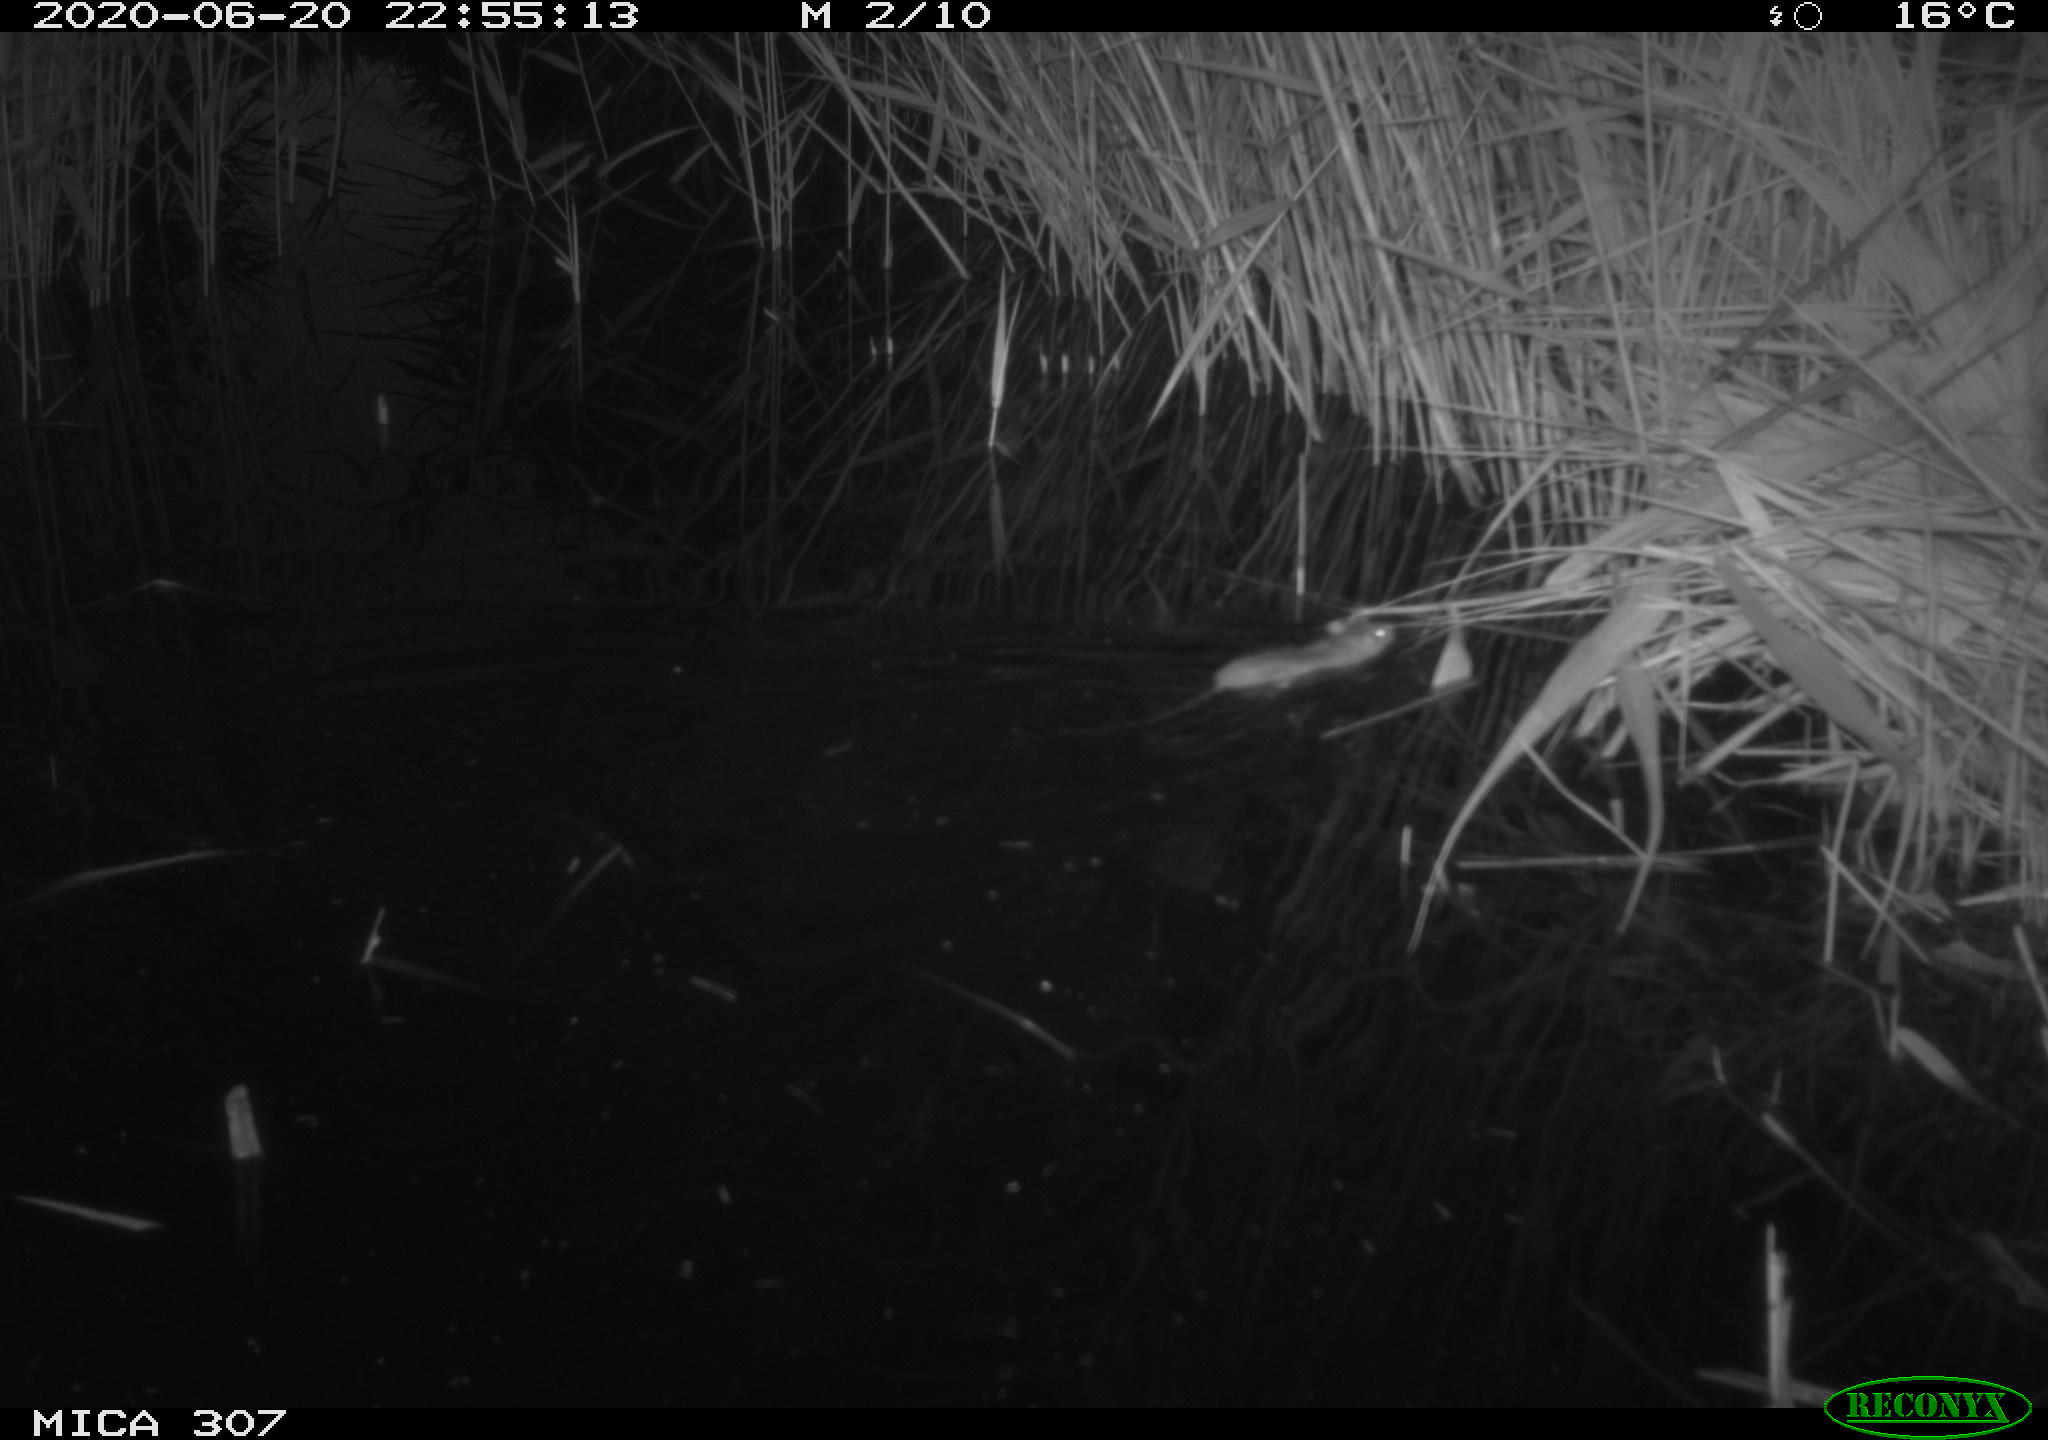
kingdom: Animalia
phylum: Chordata
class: Mammalia
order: Rodentia
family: Muridae
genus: Rattus
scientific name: Rattus norvegicus
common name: Brown rat
